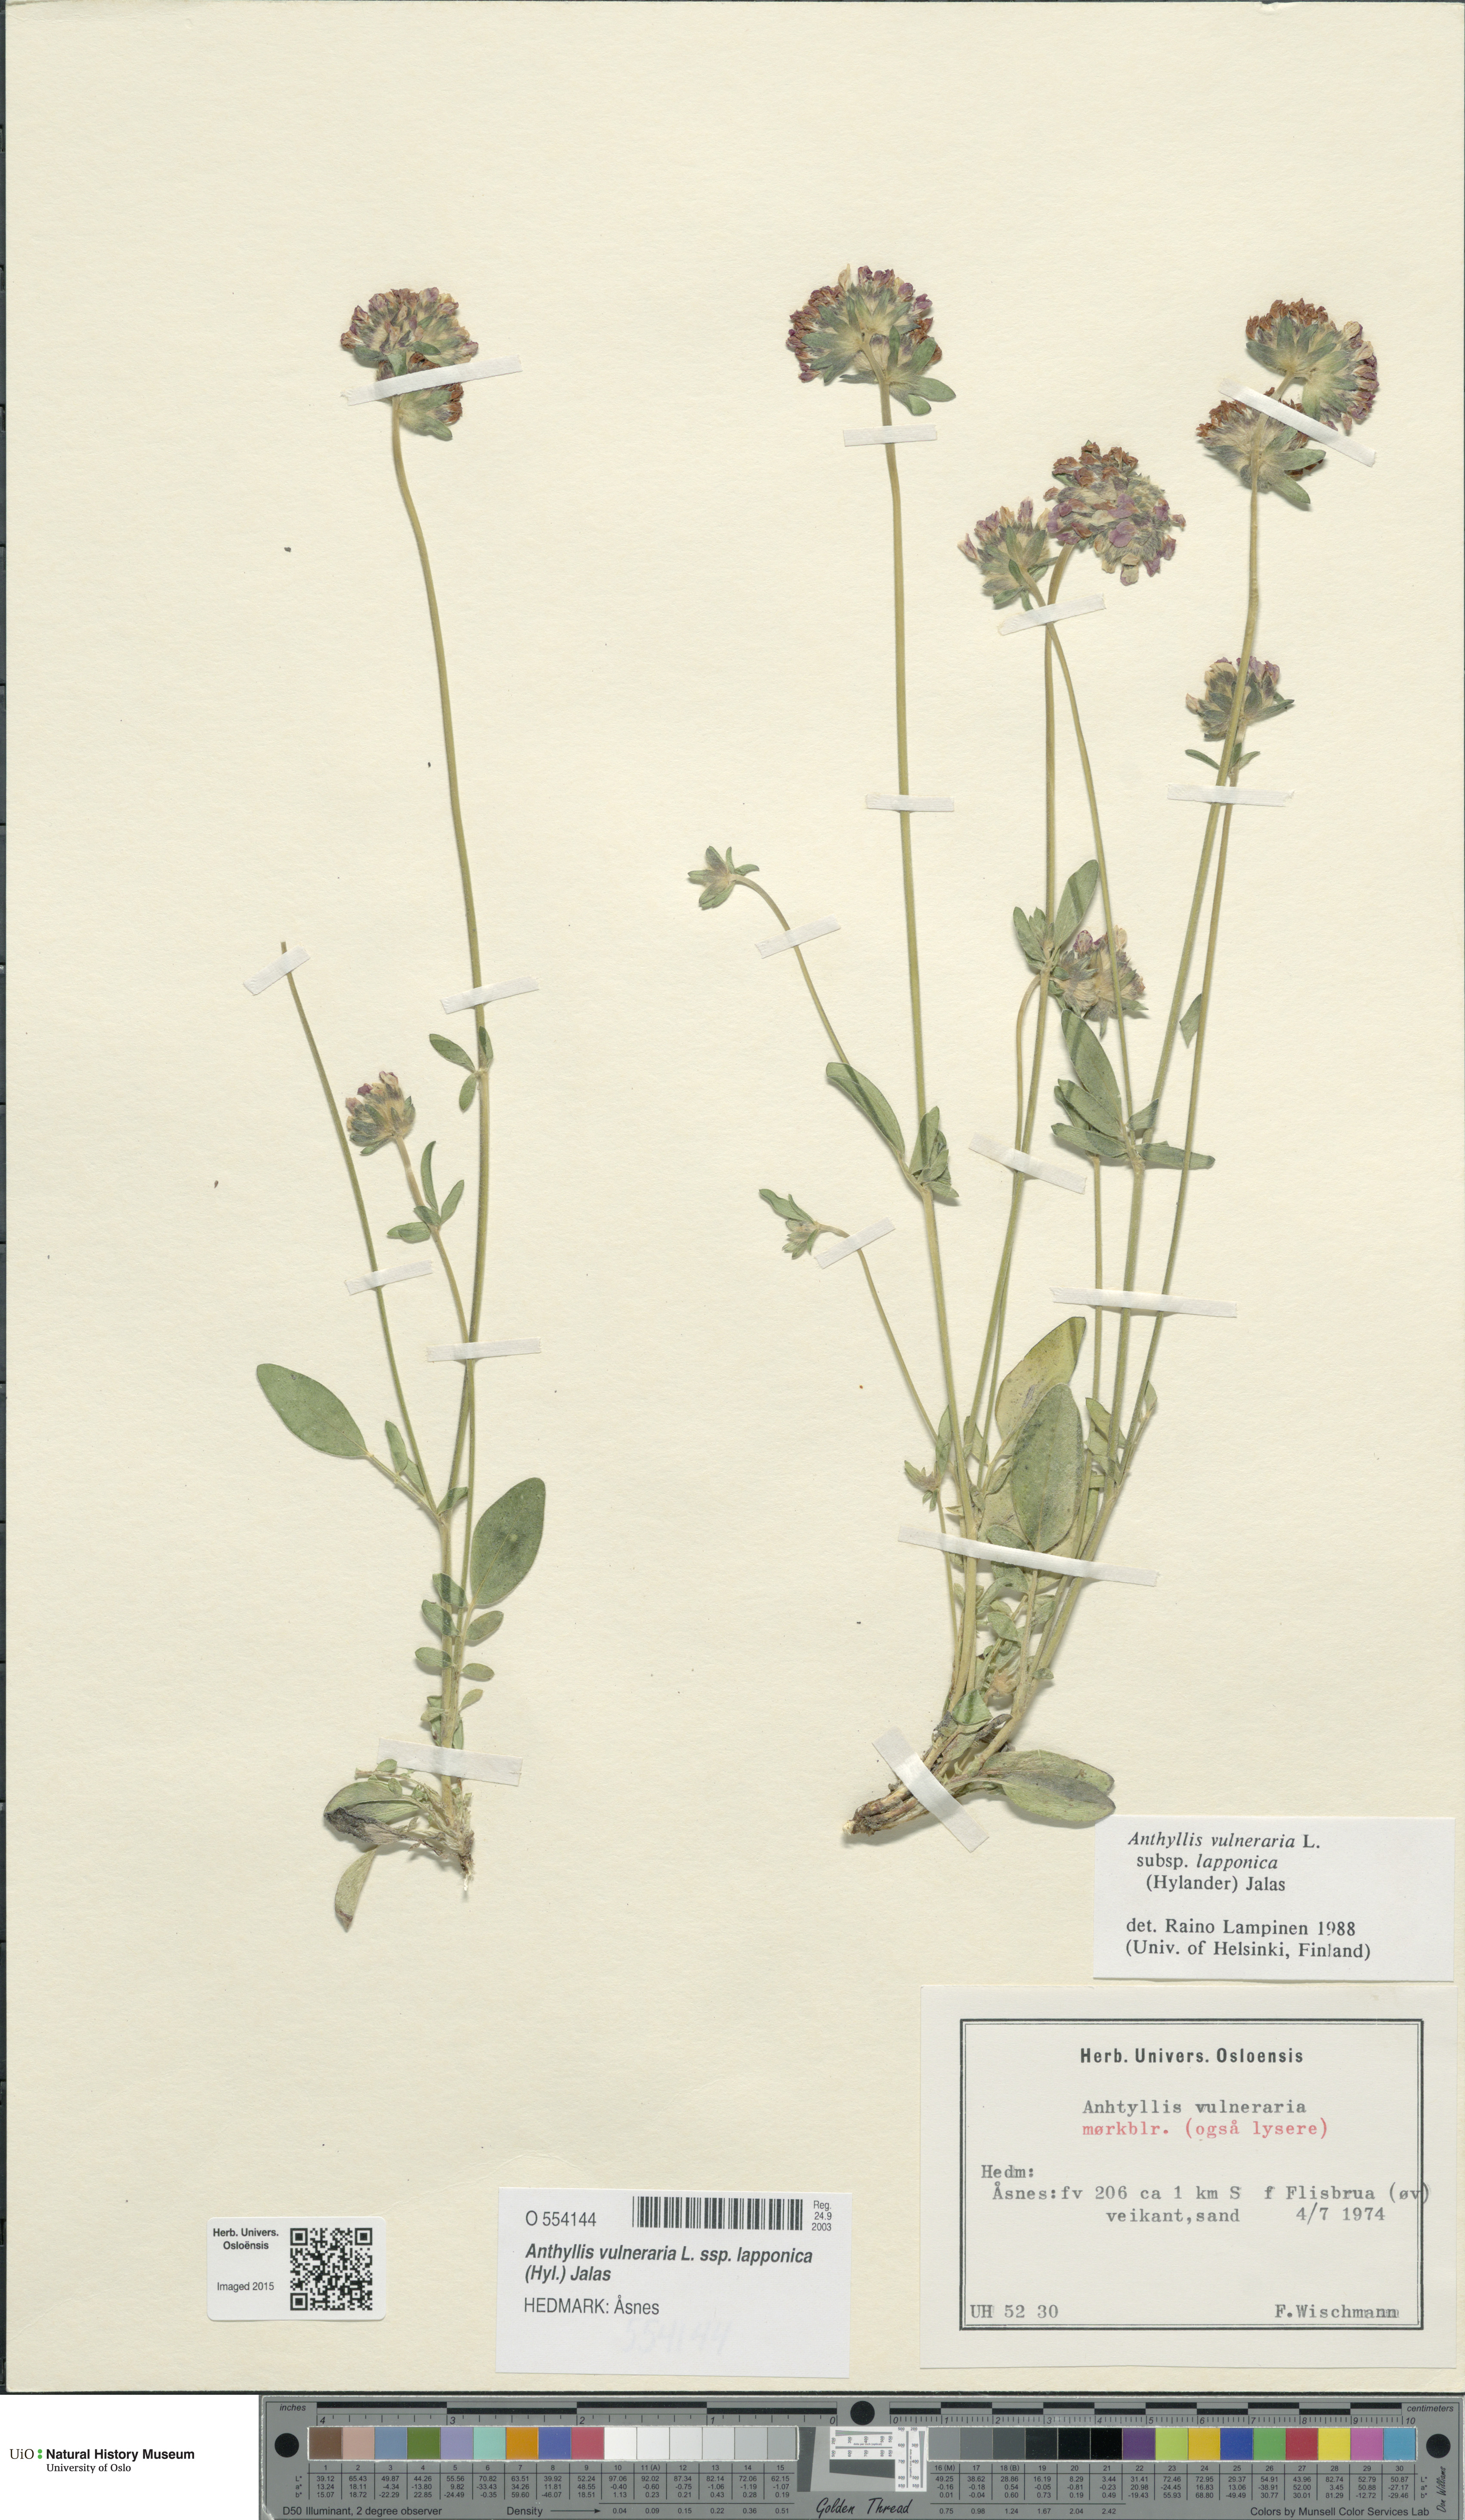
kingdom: Plantae
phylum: Tracheophyta
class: Magnoliopsida
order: Fabales
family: Fabaceae
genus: Anthyllis
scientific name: Anthyllis vulneraria
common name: Kidney vetch
